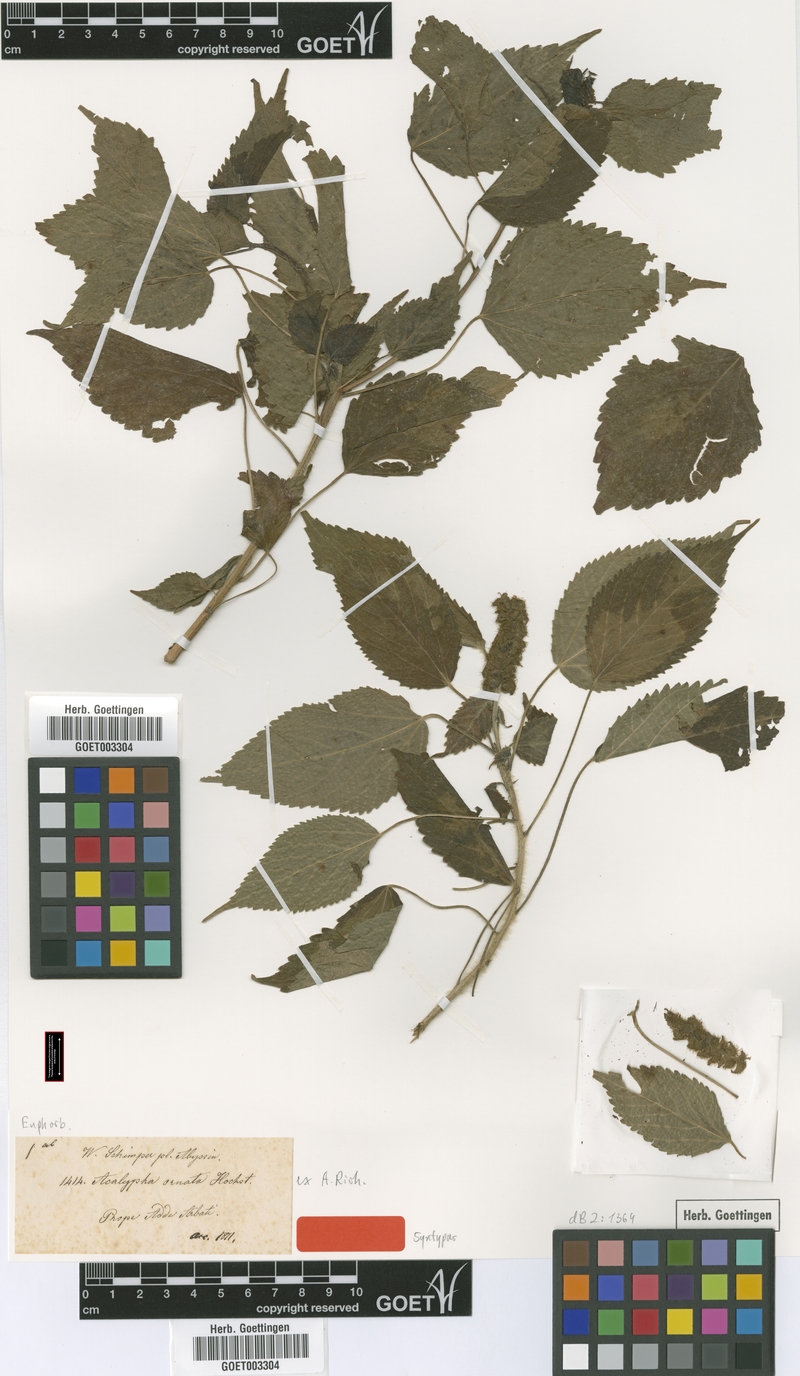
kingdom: Plantae
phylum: Tracheophyta
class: Magnoliopsida
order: Malpighiales
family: Euphorbiaceae
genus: Acalypha
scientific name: Acalypha ornata
